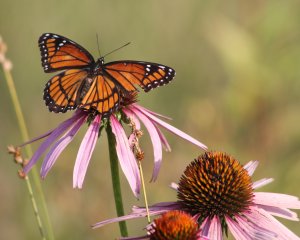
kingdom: Animalia
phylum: Arthropoda
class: Insecta
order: Lepidoptera
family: Nymphalidae
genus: Limenitis
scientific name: Limenitis archippus
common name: Viceroy
